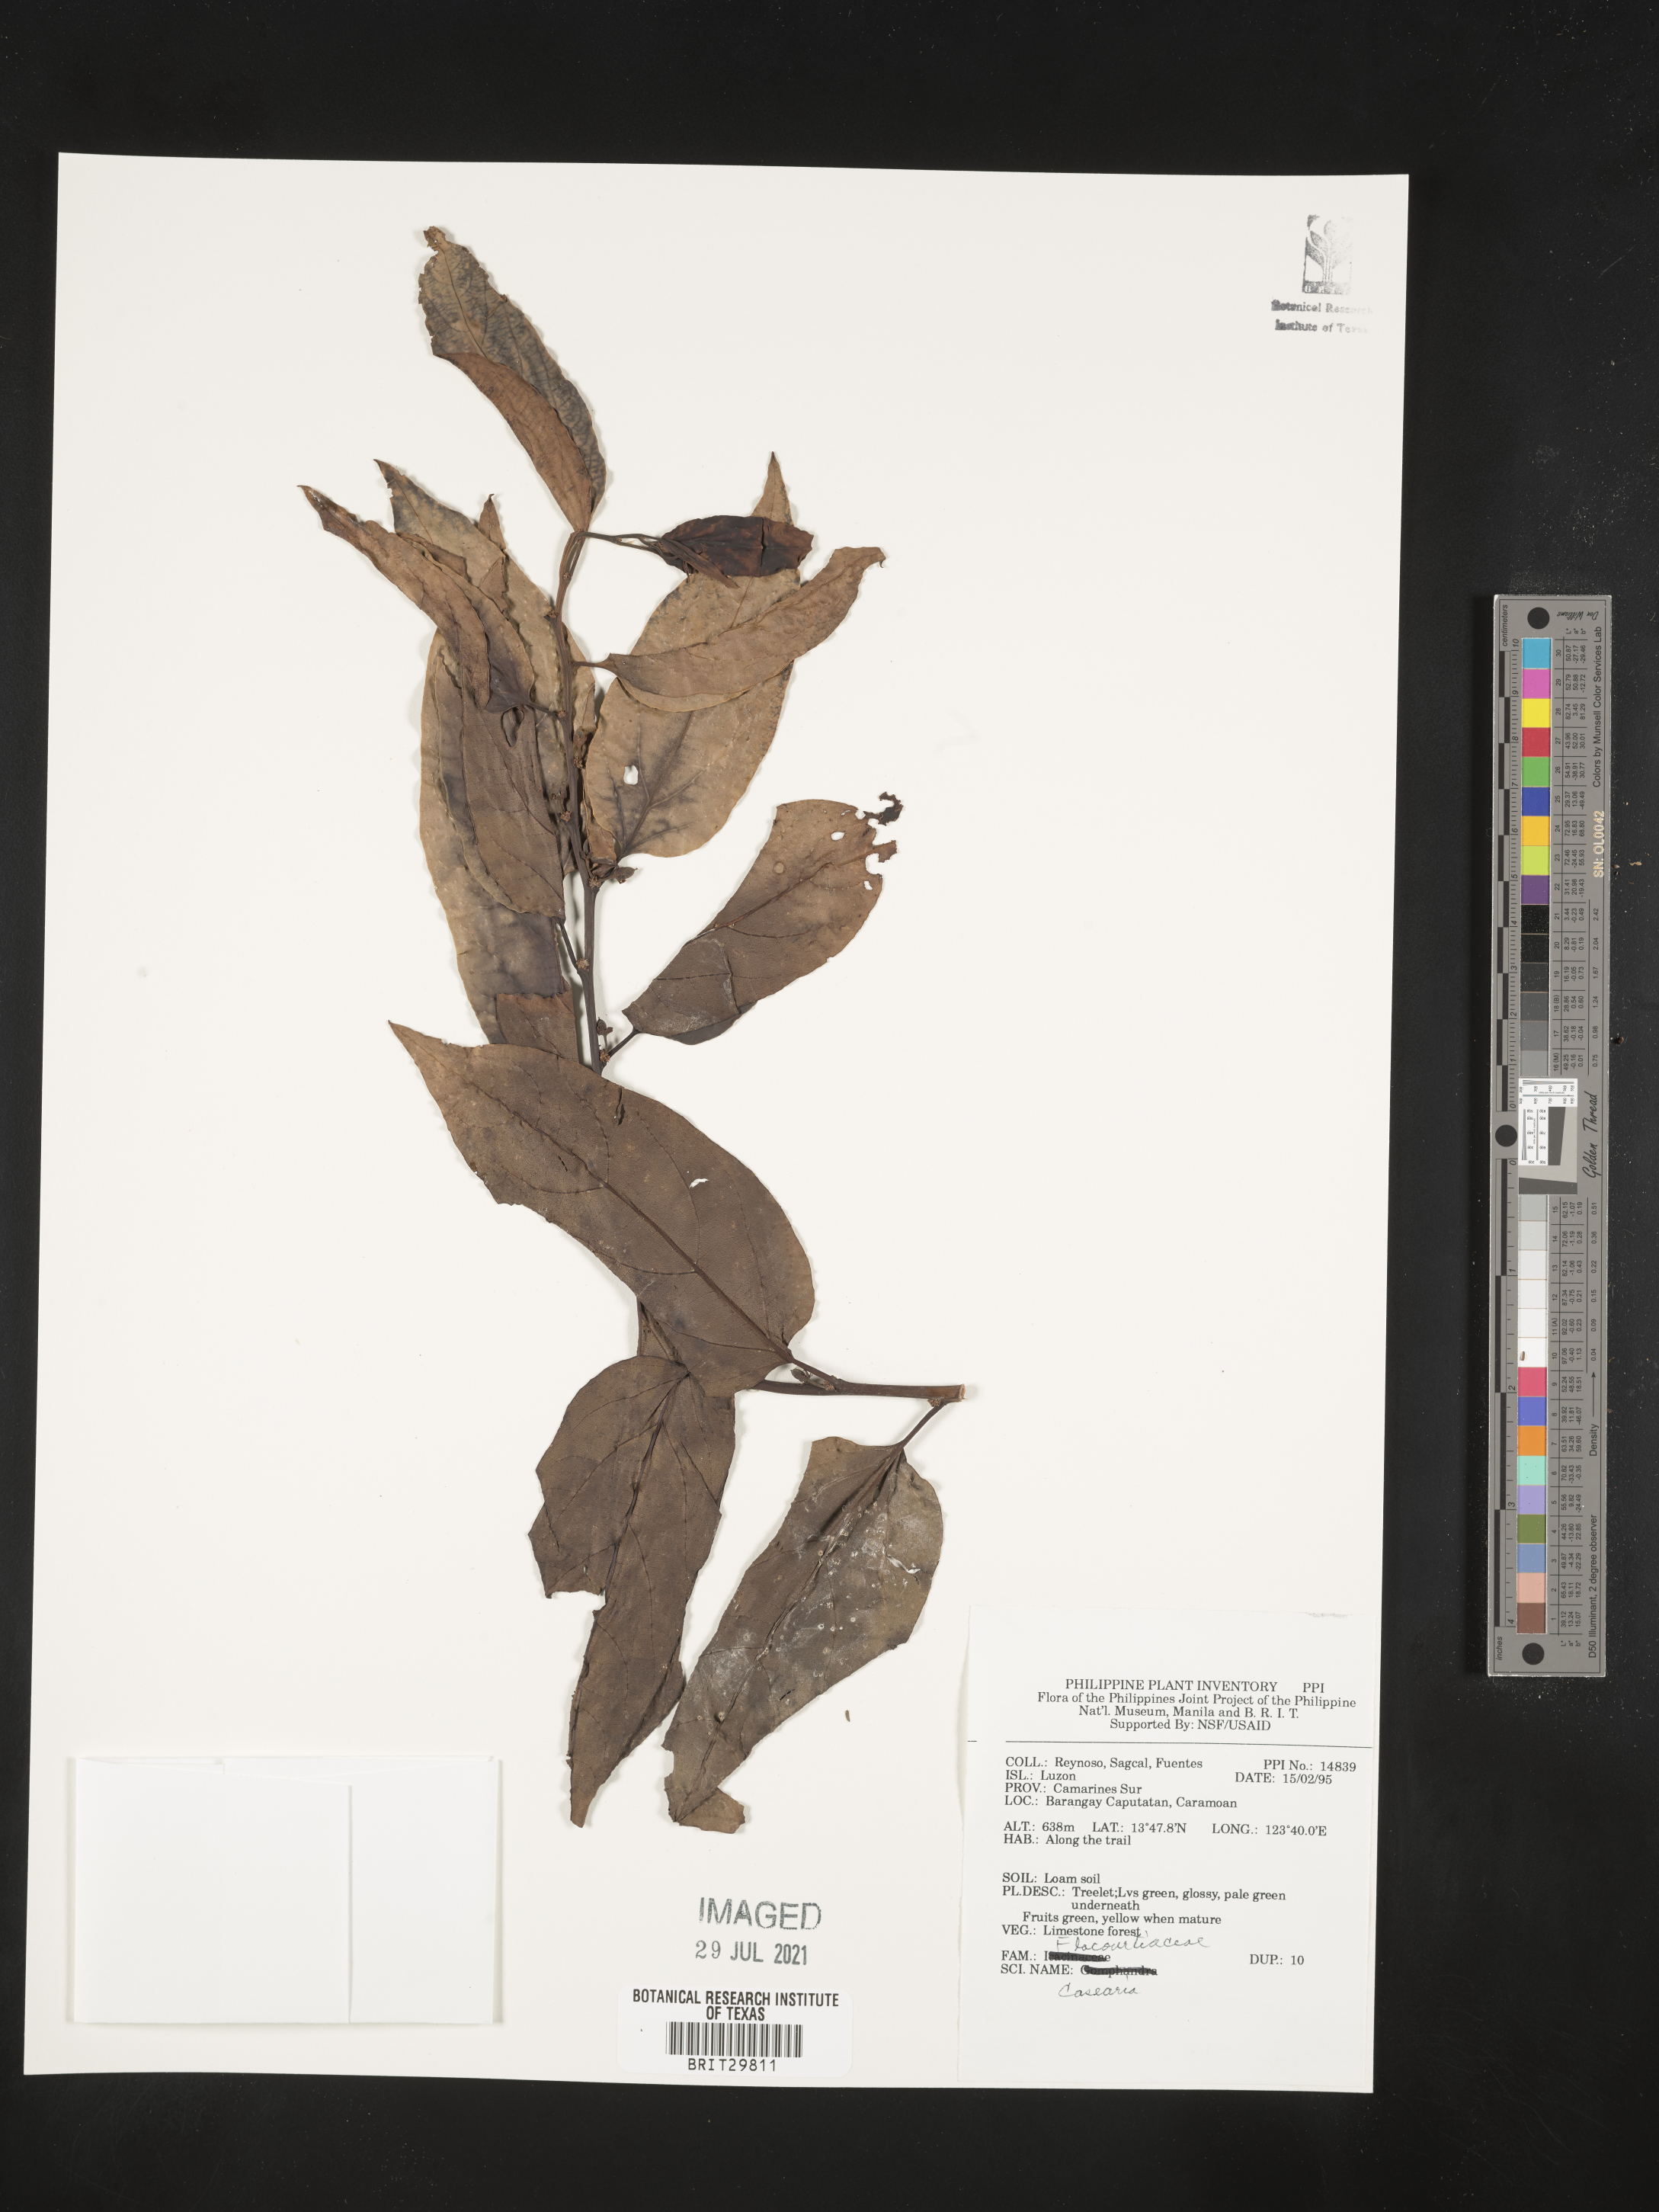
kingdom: Plantae
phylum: Tracheophyta
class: Magnoliopsida
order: Malpighiales
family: Salicaceae
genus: Casearia
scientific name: Casearia
